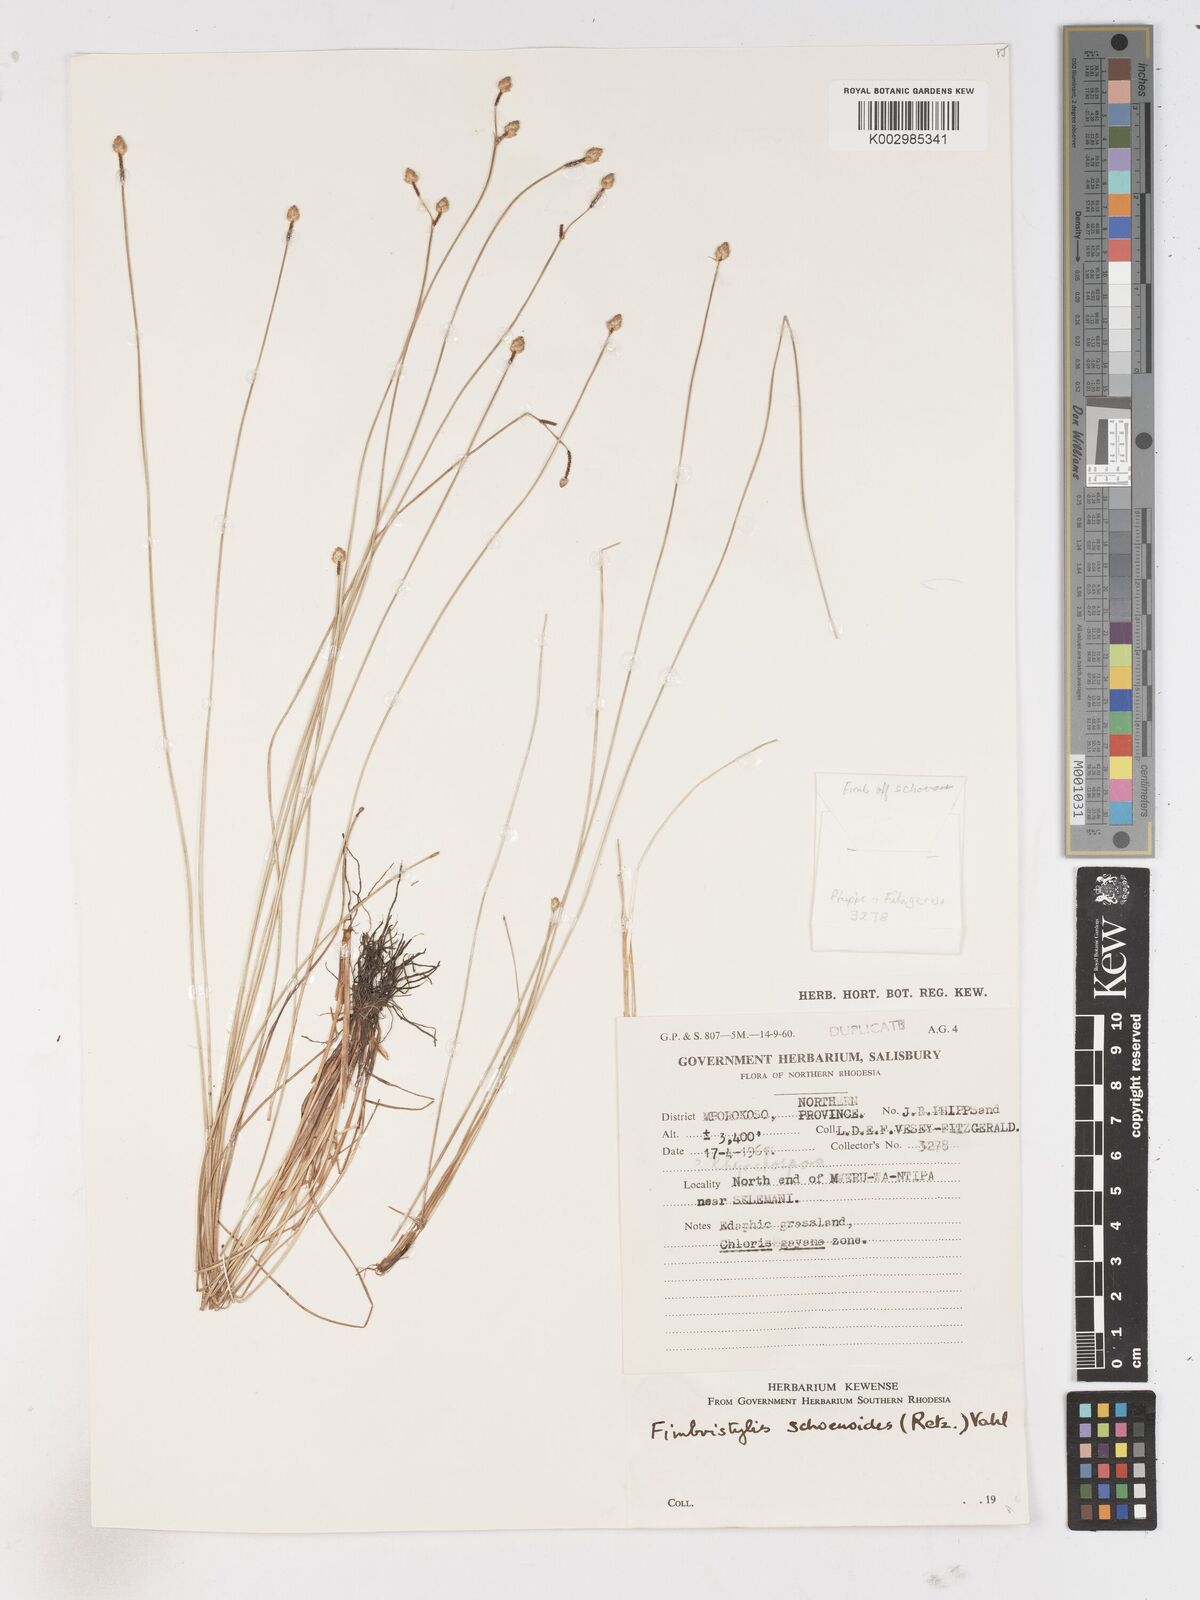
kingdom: Plantae
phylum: Tracheophyta
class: Liliopsida
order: Poales
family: Cyperaceae
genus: Fimbristylis
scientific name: Fimbristylis schoenoides
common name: Ditch fimbry
